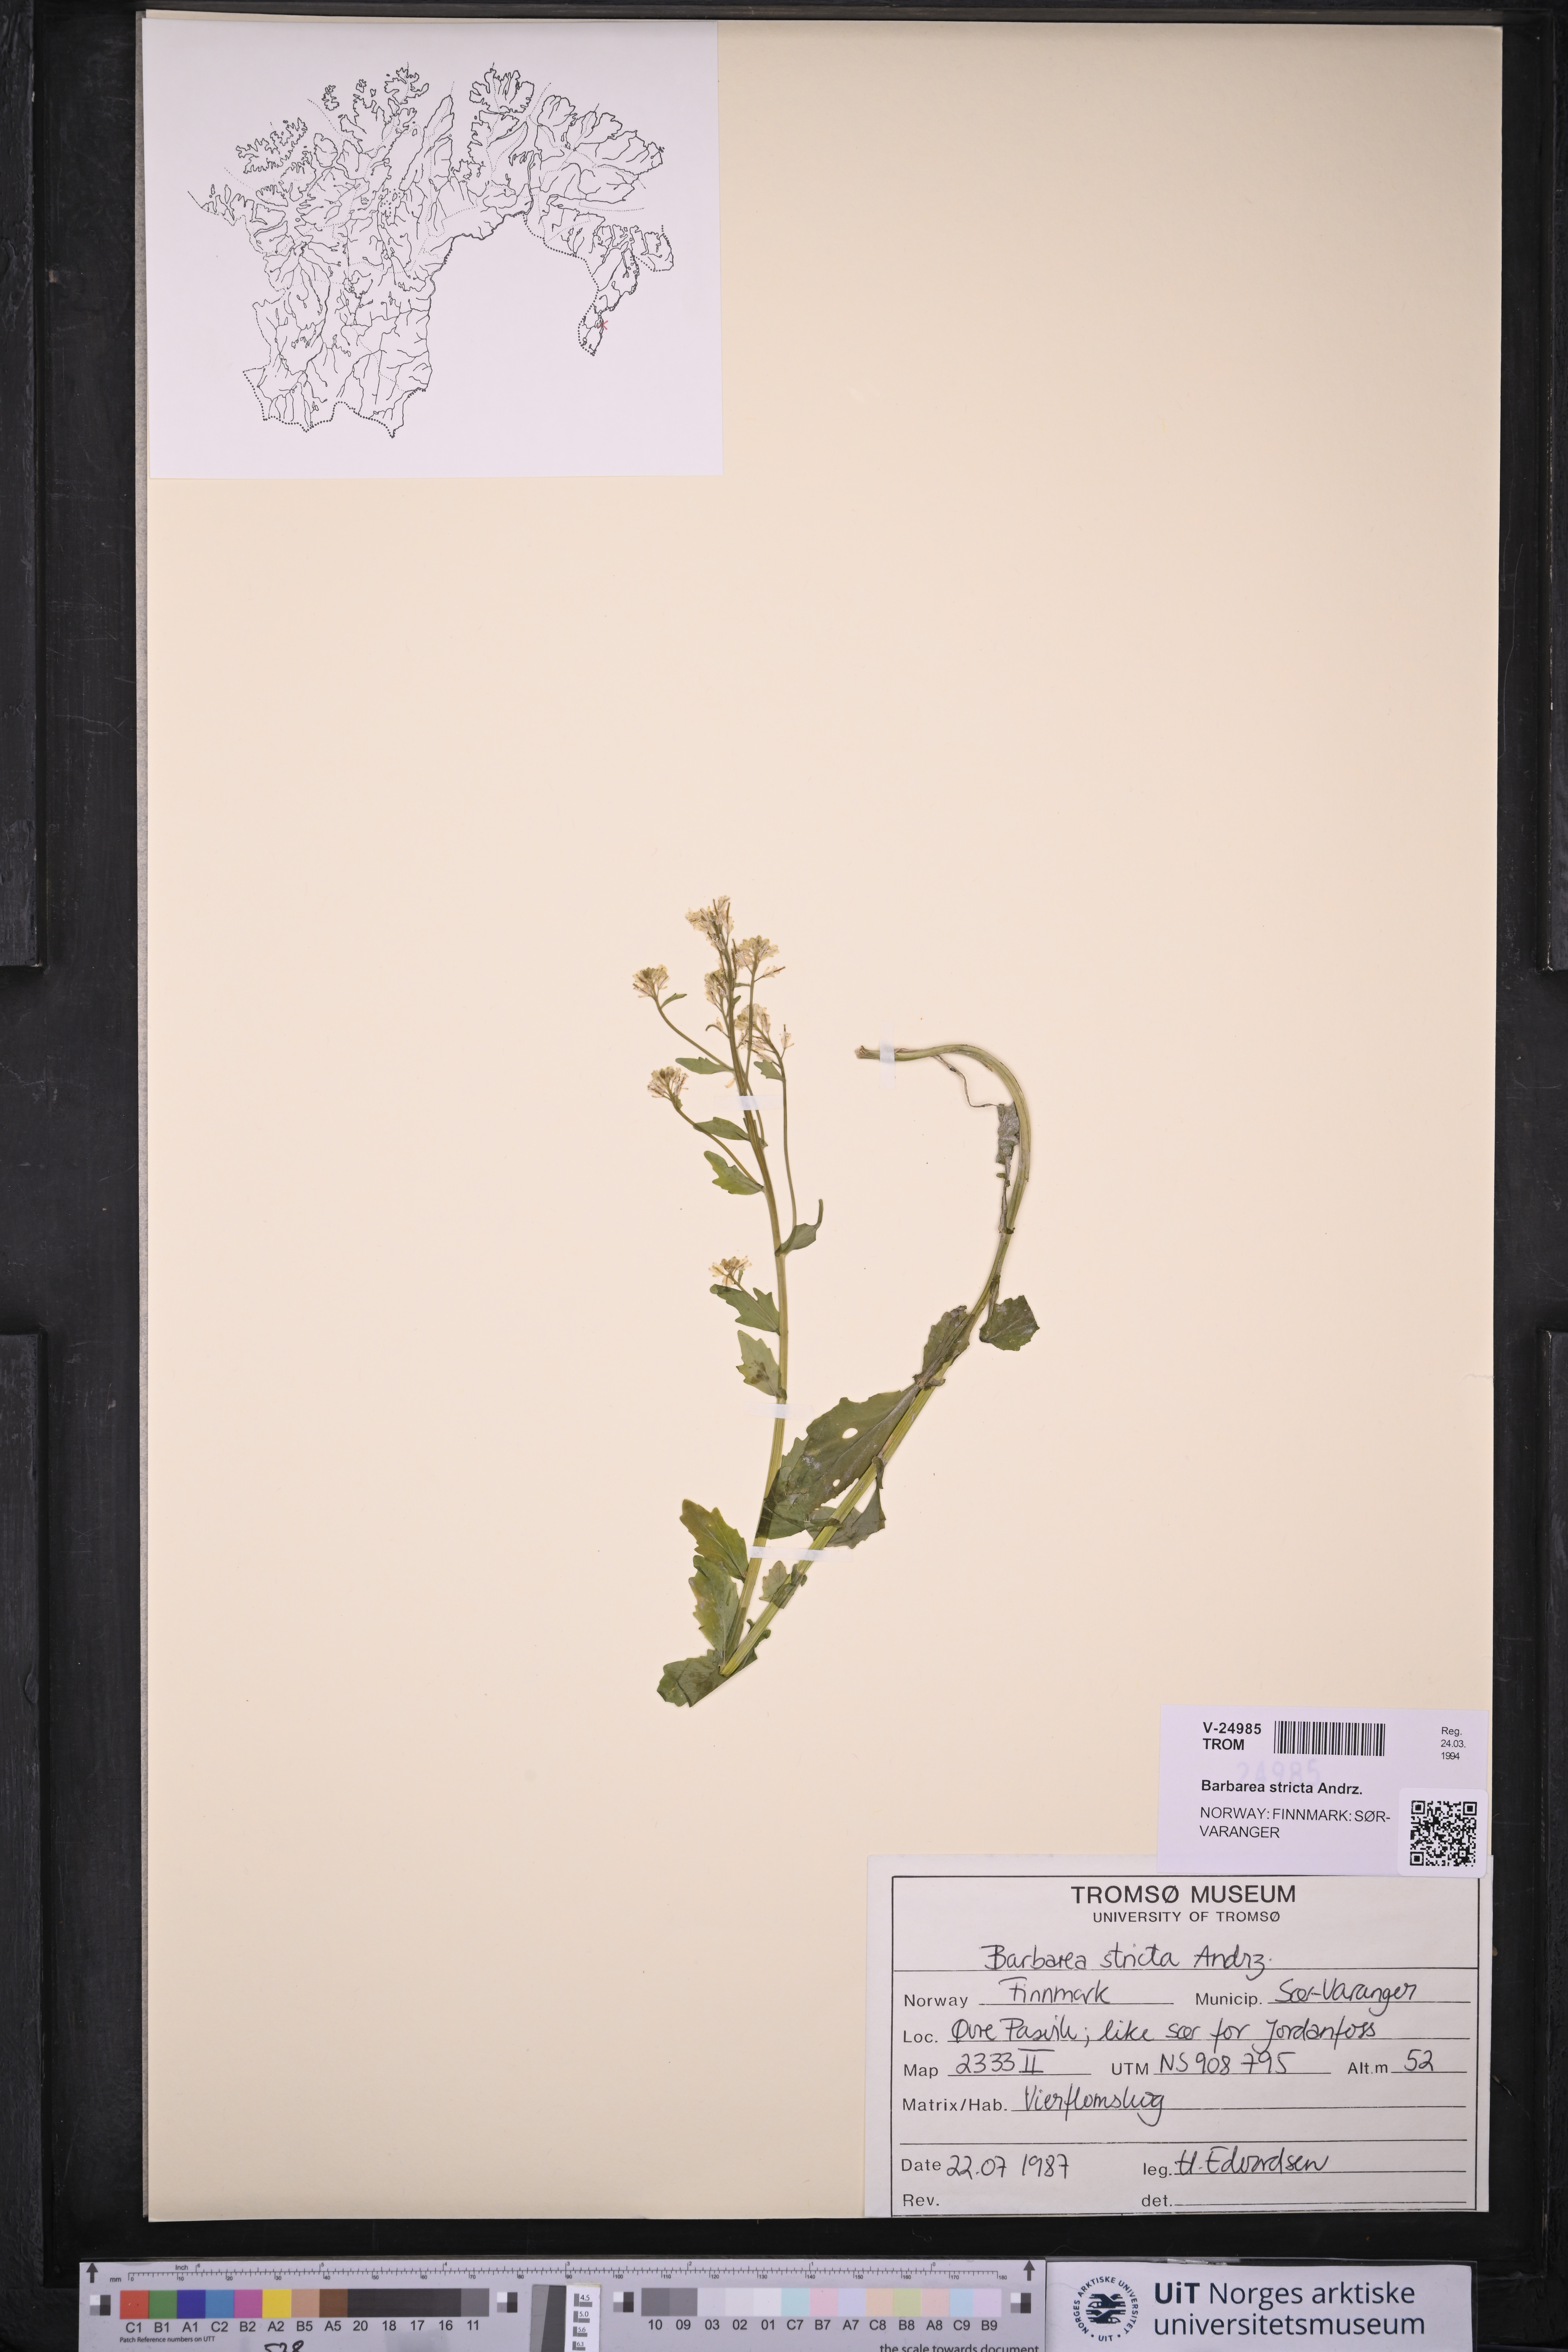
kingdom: Plantae
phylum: Tracheophyta
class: Magnoliopsida
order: Brassicales
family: Brassicaceae
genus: Barbarea
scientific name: Barbarea stricta
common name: Small-flowered winter-cress
